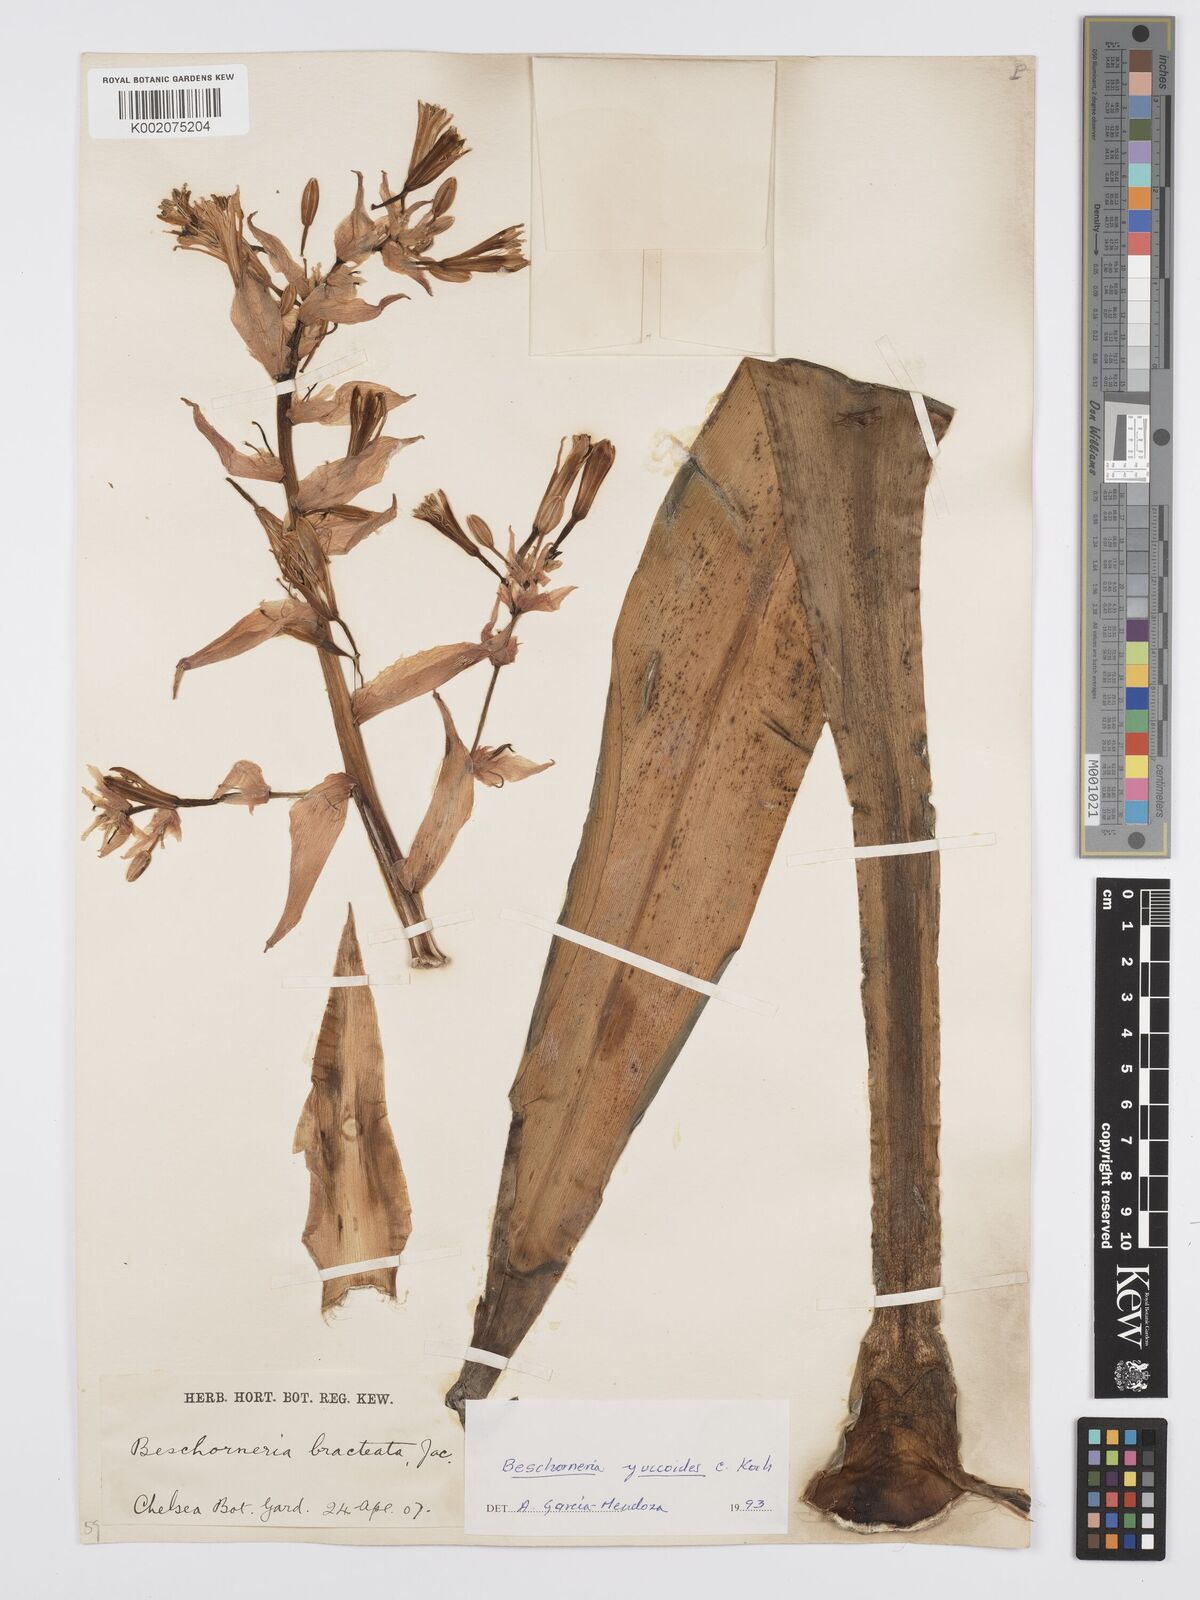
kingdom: Plantae
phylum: Tracheophyta
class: Liliopsida
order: Asparagales
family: Asparagaceae
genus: Beschorneria
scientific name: Beschorneria yuccoides
